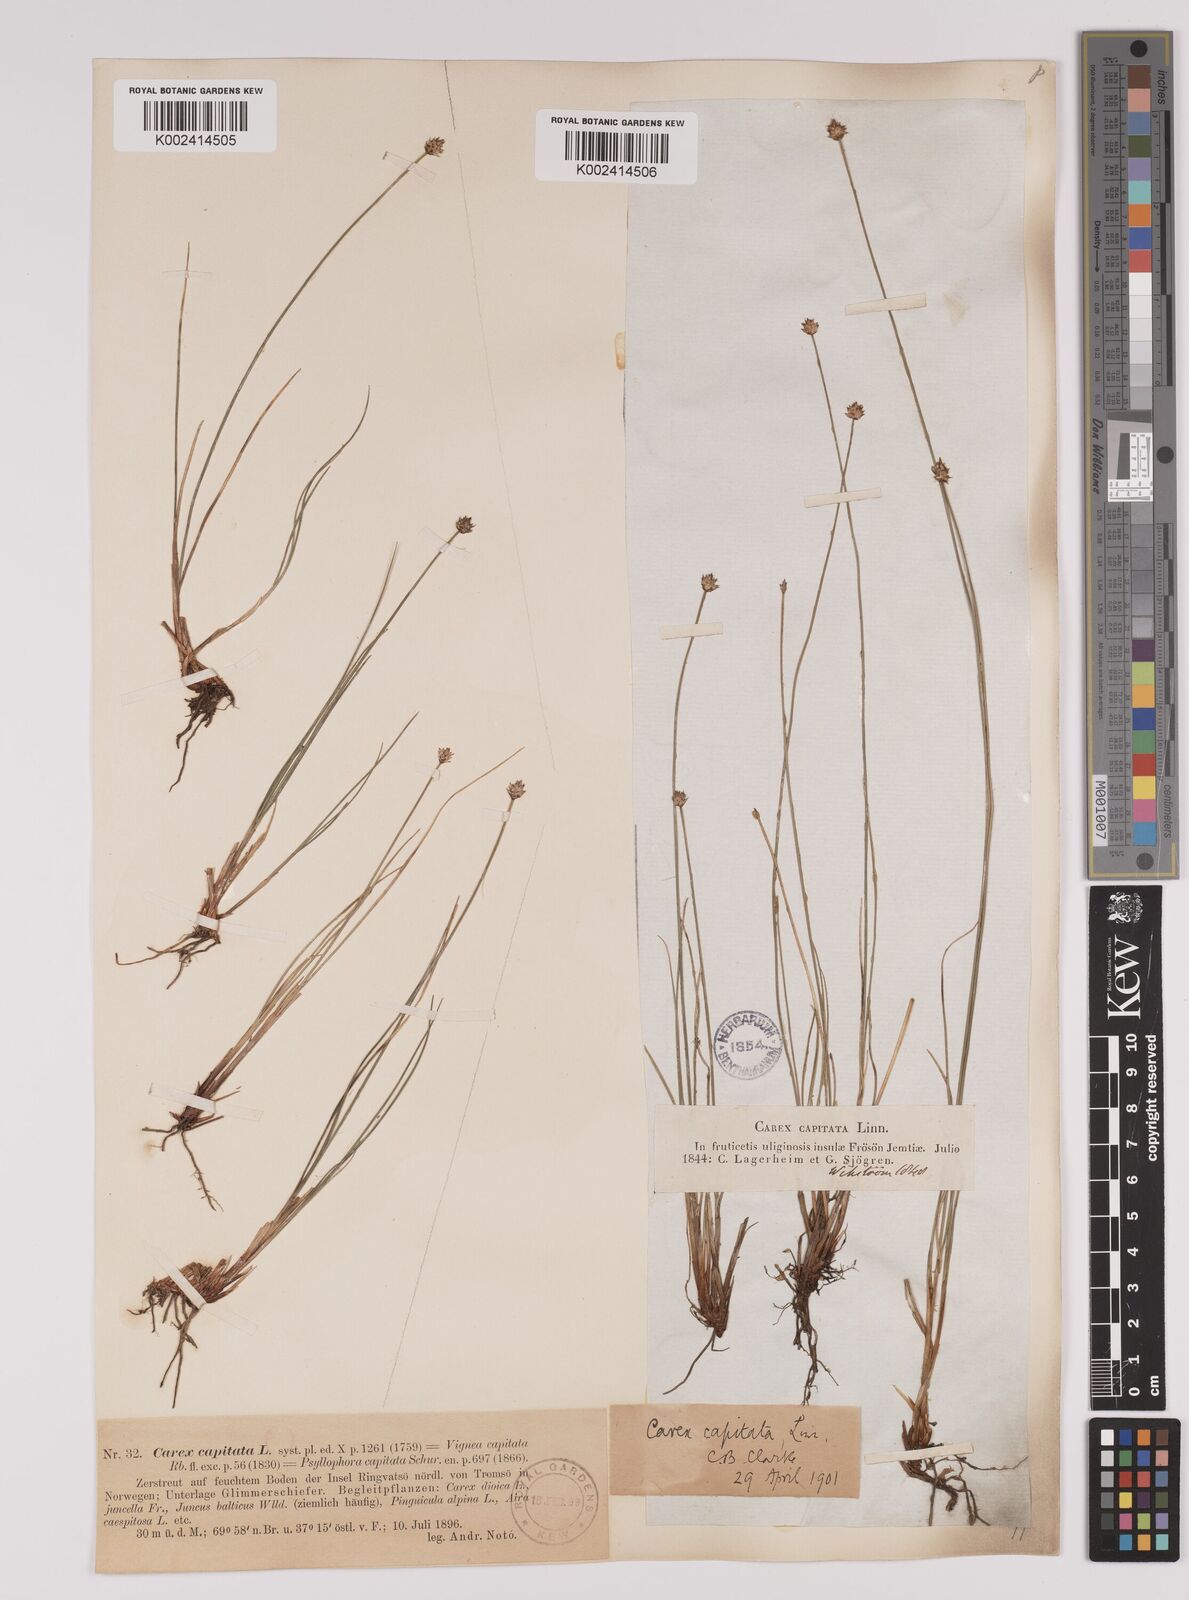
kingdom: Plantae
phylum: Tracheophyta
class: Liliopsida
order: Poales
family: Cyperaceae
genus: Carex
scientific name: Carex capitata
